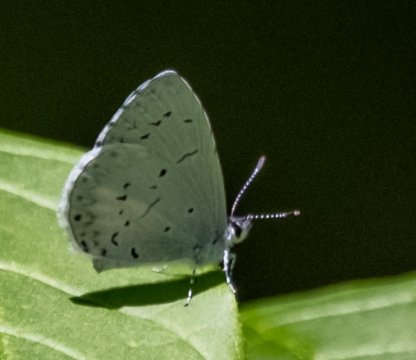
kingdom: Animalia
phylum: Arthropoda
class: Insecta
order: Lepidoptera
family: Lycaenidae
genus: Cyaniris
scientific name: Cyaniris neglecta
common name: Summer Azure
